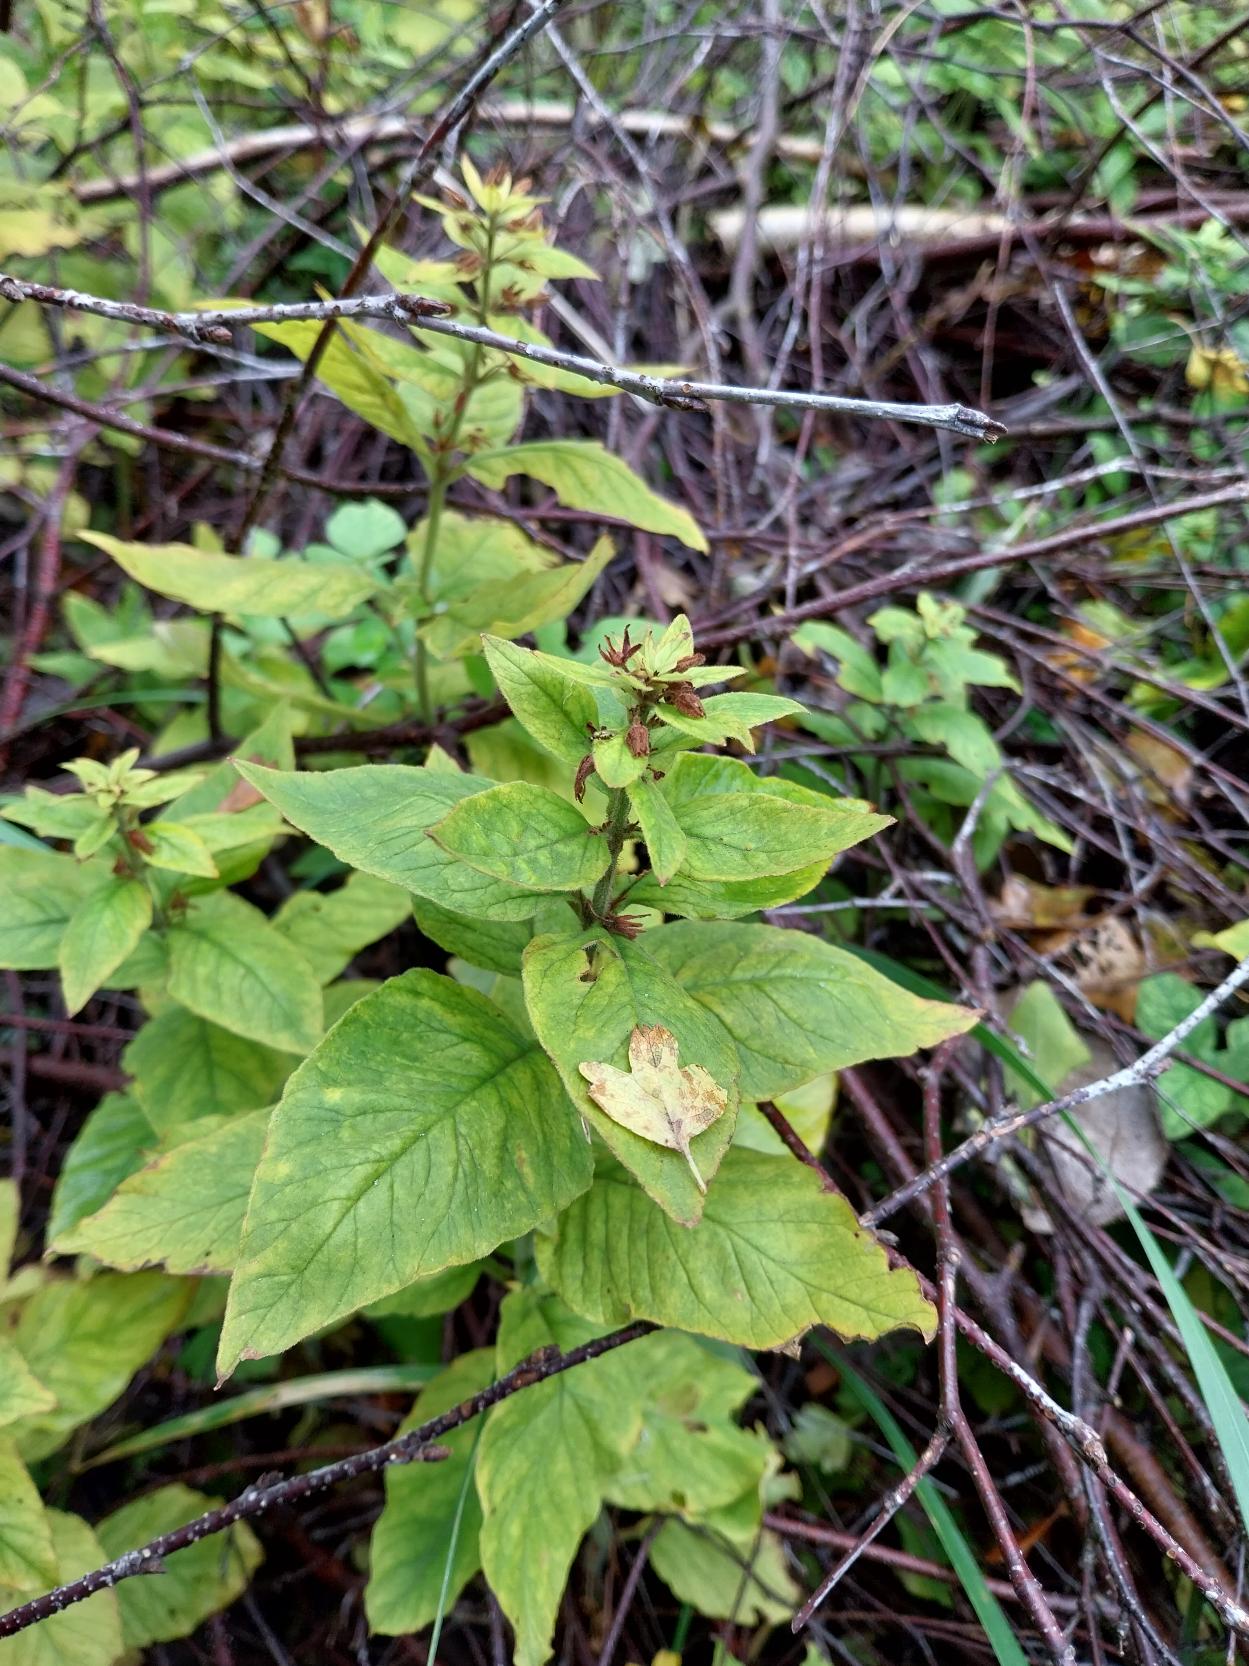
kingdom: Plantae
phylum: Tracheophyta
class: Magnoliopsida
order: Ericales
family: Primulaceae
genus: Lysimachia
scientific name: Lysimachia punctata
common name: Prikbladet fredløs
